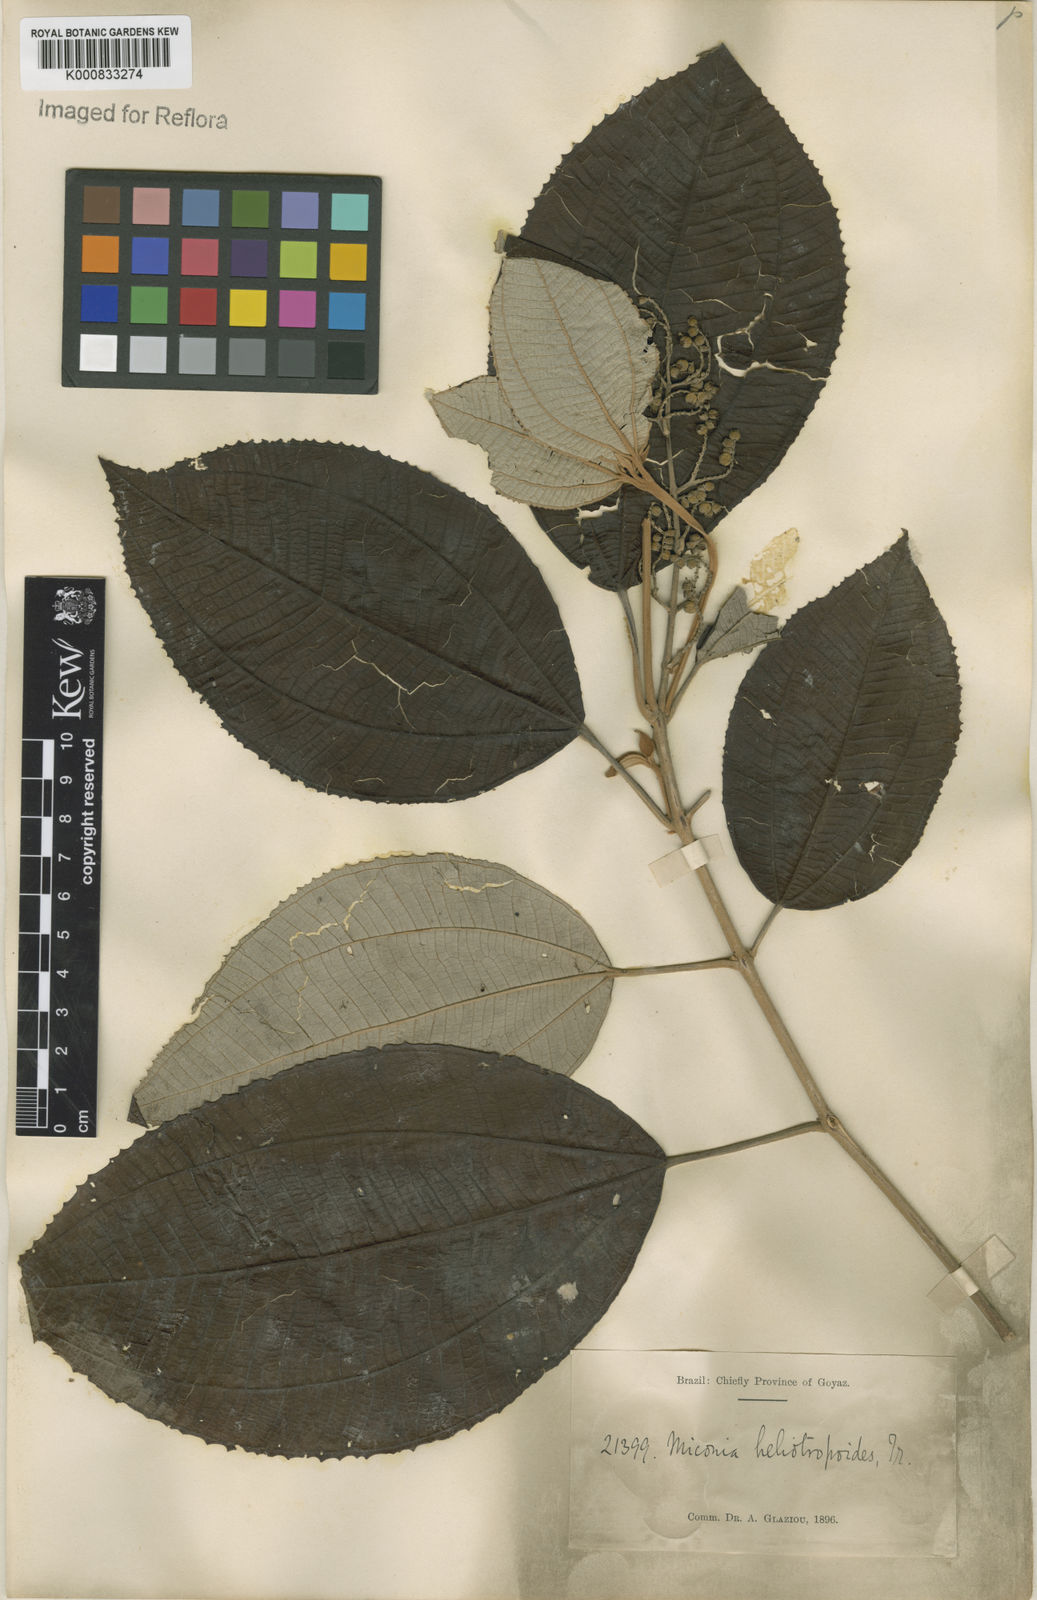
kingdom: Plantae
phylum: Tracheophyta
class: Magnoliopsida
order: Myrtales
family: Melastomataceae
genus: Miconia
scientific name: Miconia heliotropoides
